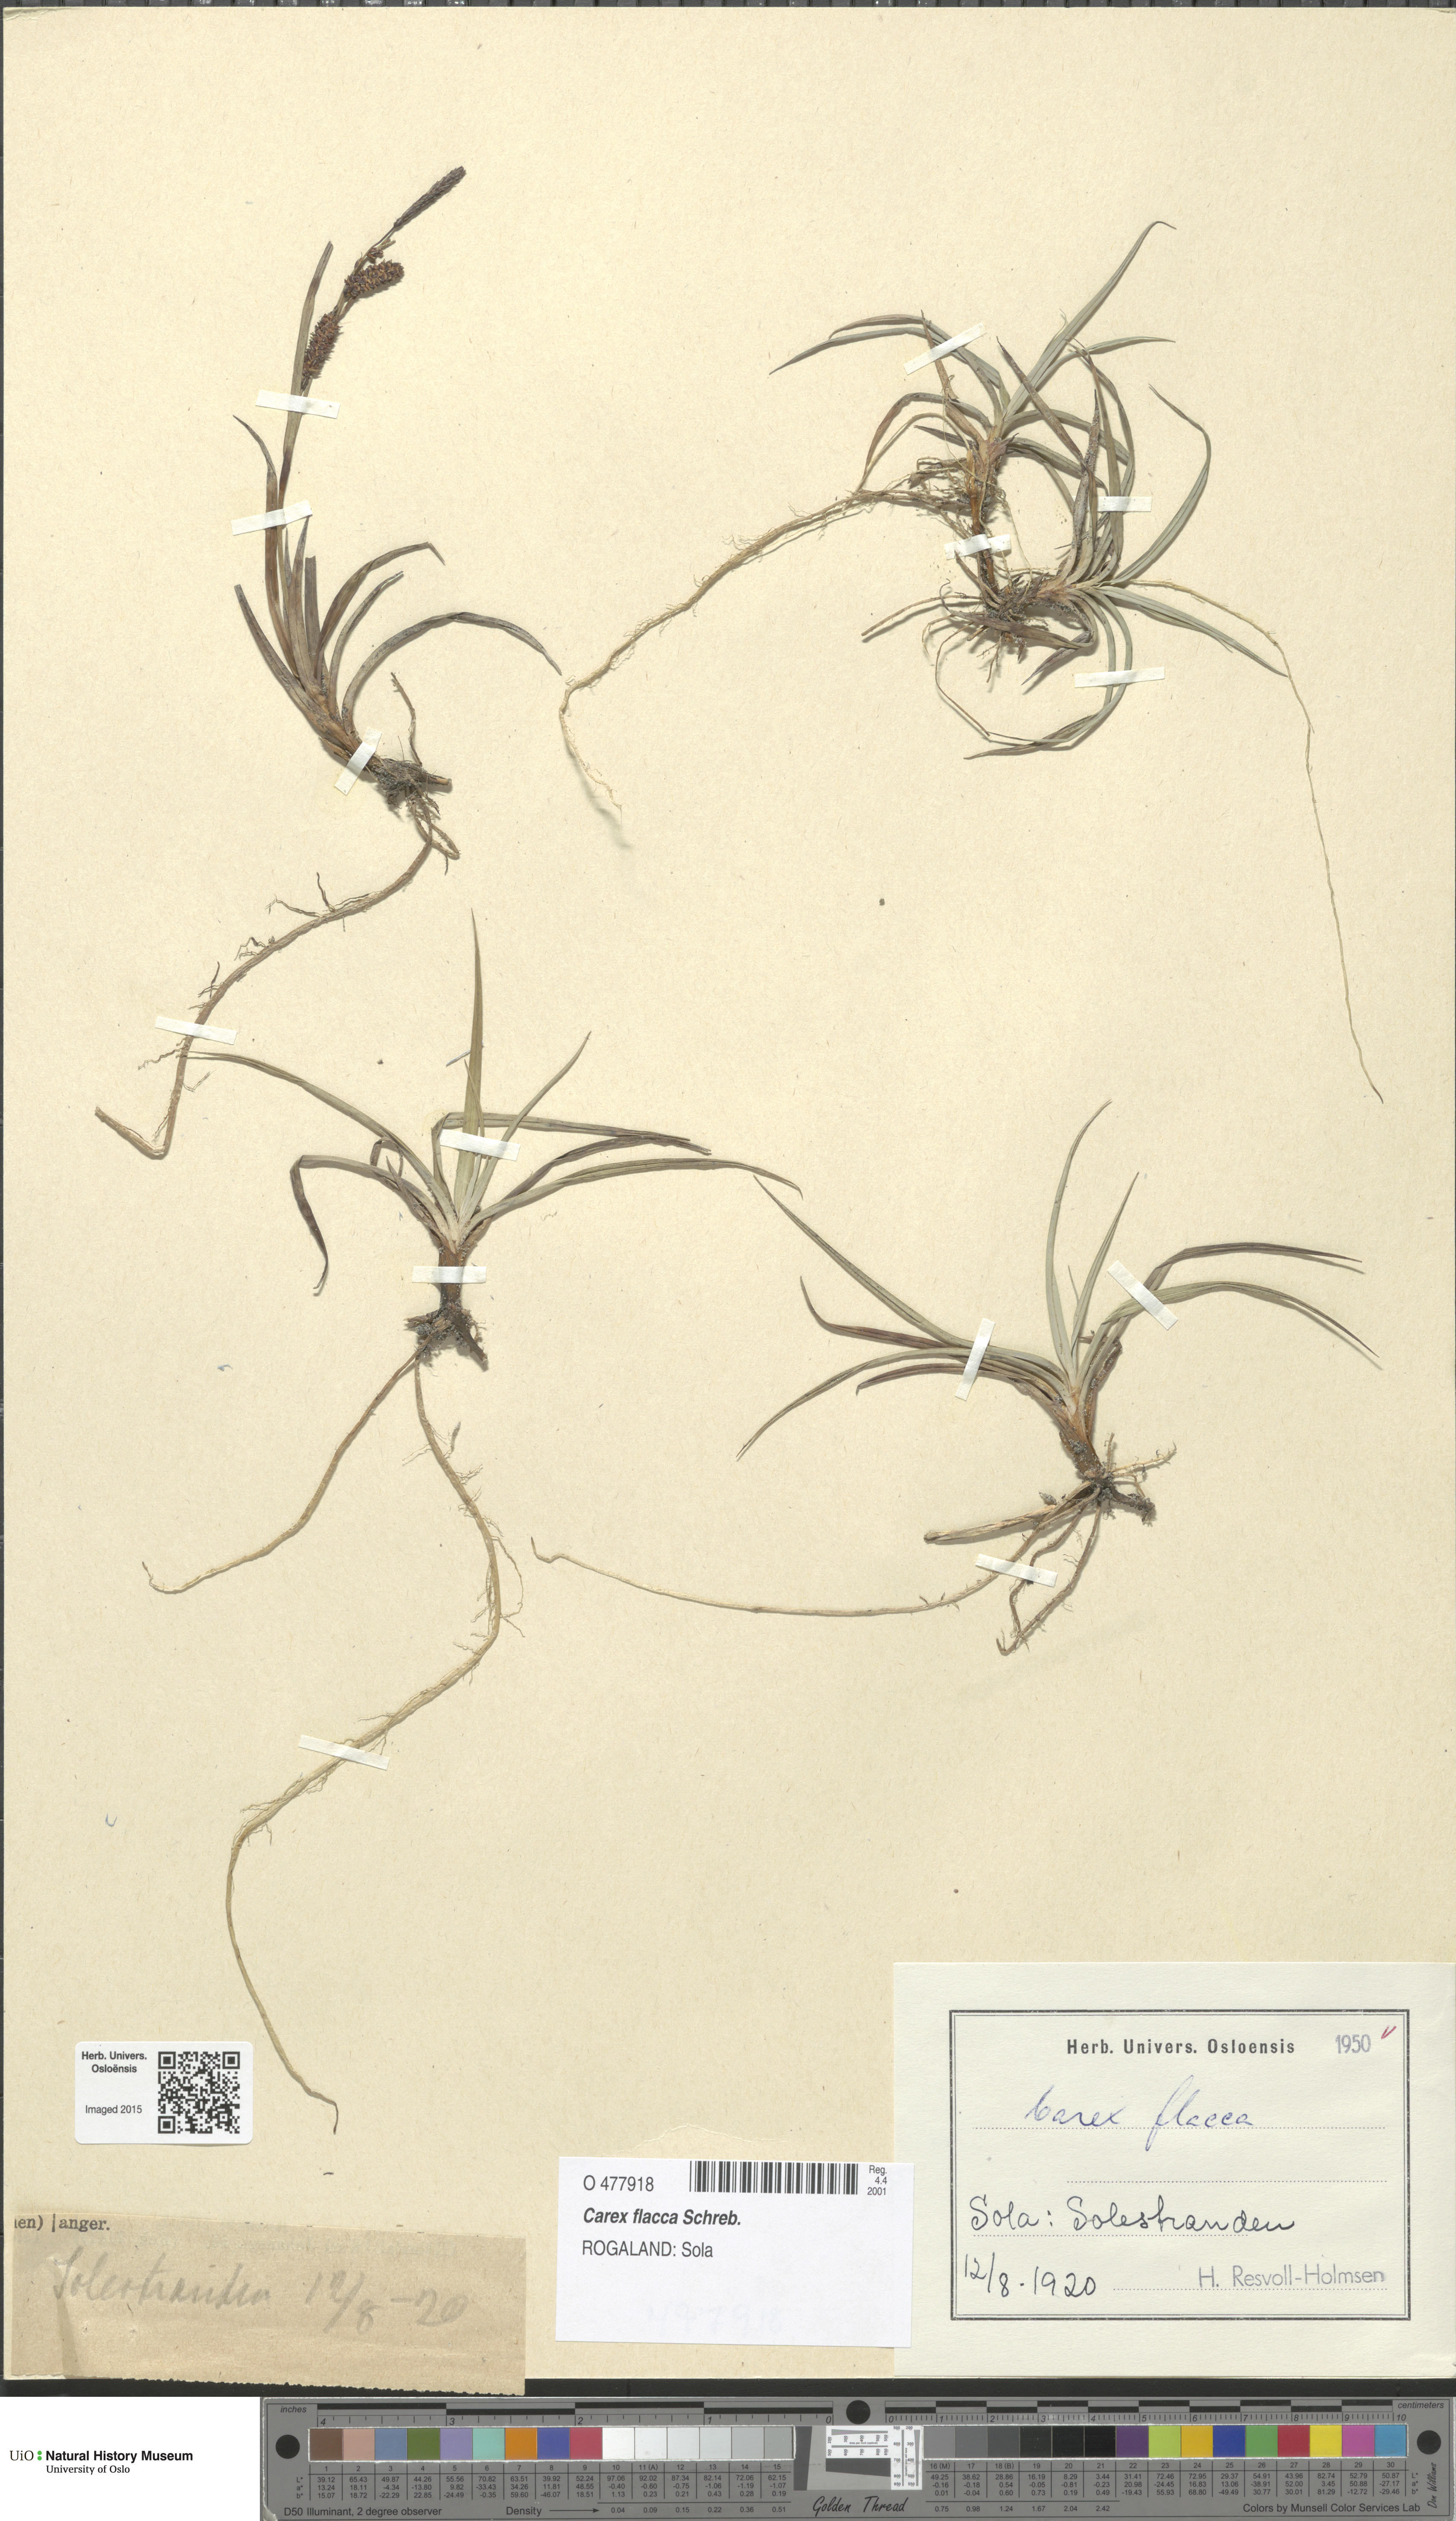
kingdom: Plantae
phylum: Tracheophyta
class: Liliopsida
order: Poales
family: Cyperaceae
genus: Carex
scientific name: Carex flacca
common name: Glaucous sedge
